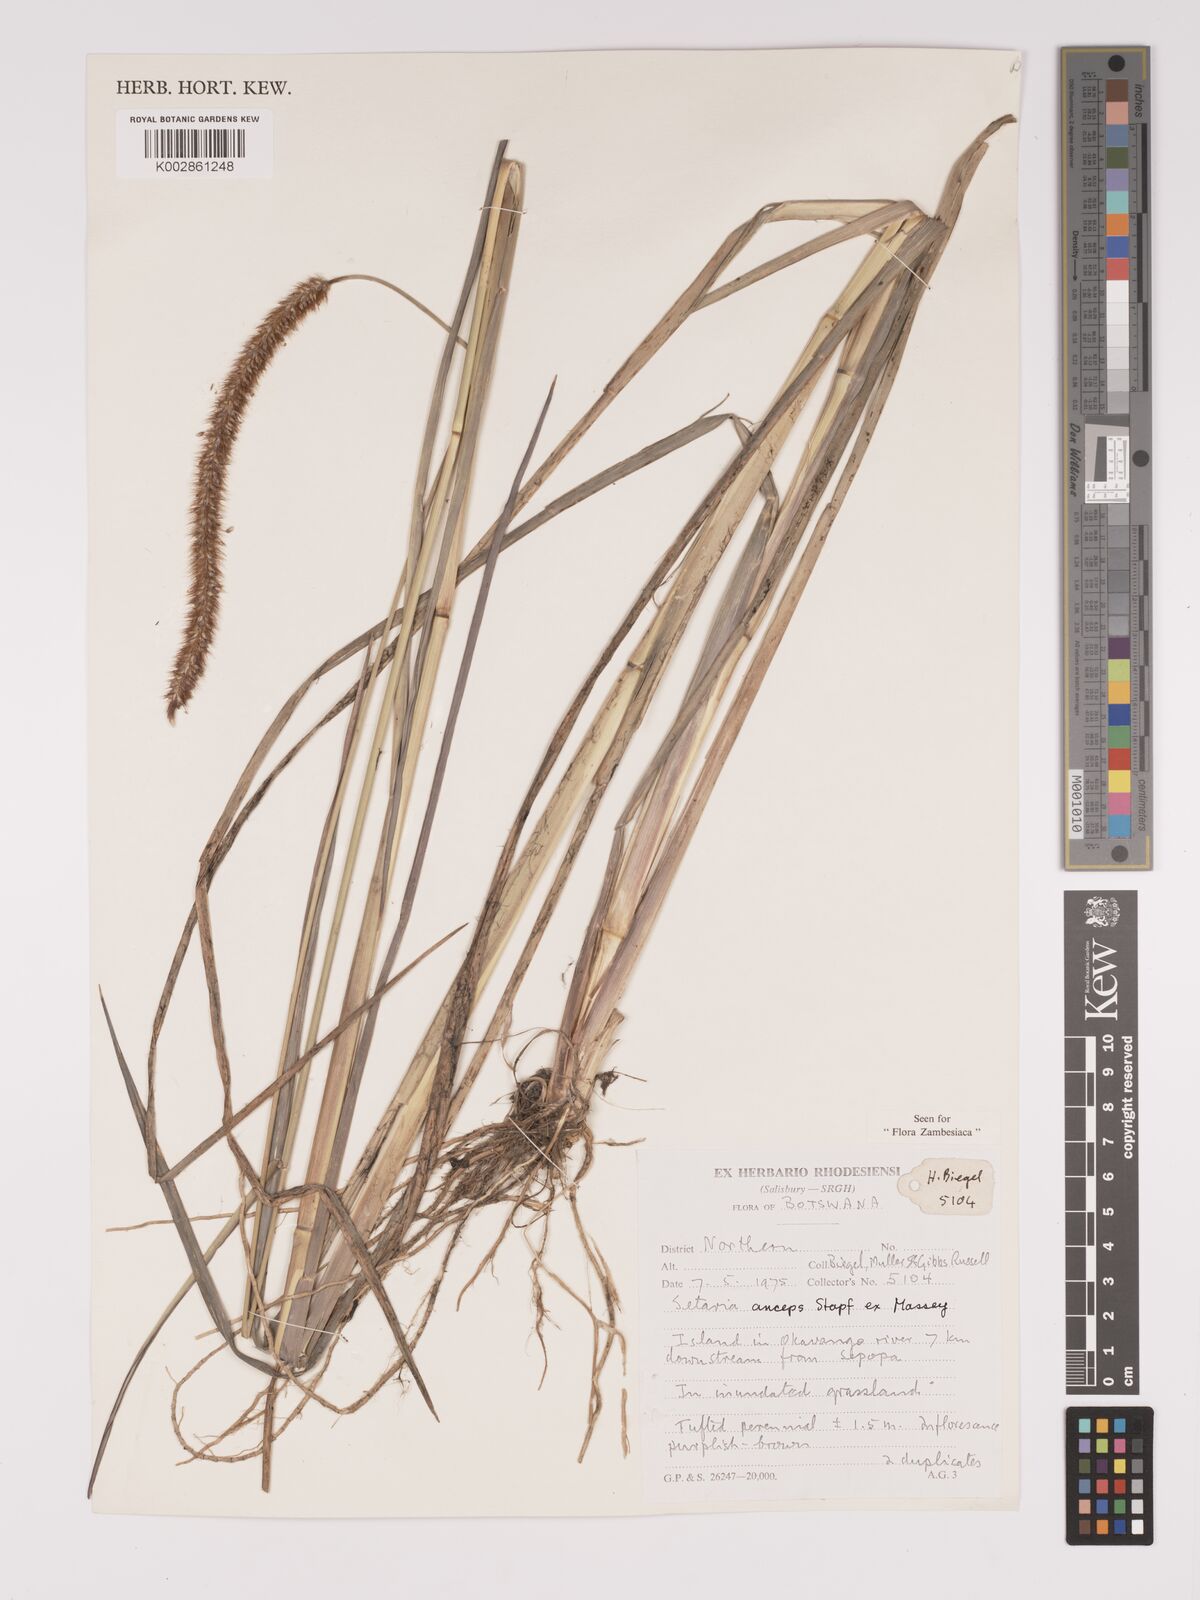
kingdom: Plantae
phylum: Tracheophyta
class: Liliopsida
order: Poales
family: Poaceae
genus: Setaria
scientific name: Setaria sphacelata
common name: African bristlegrass
